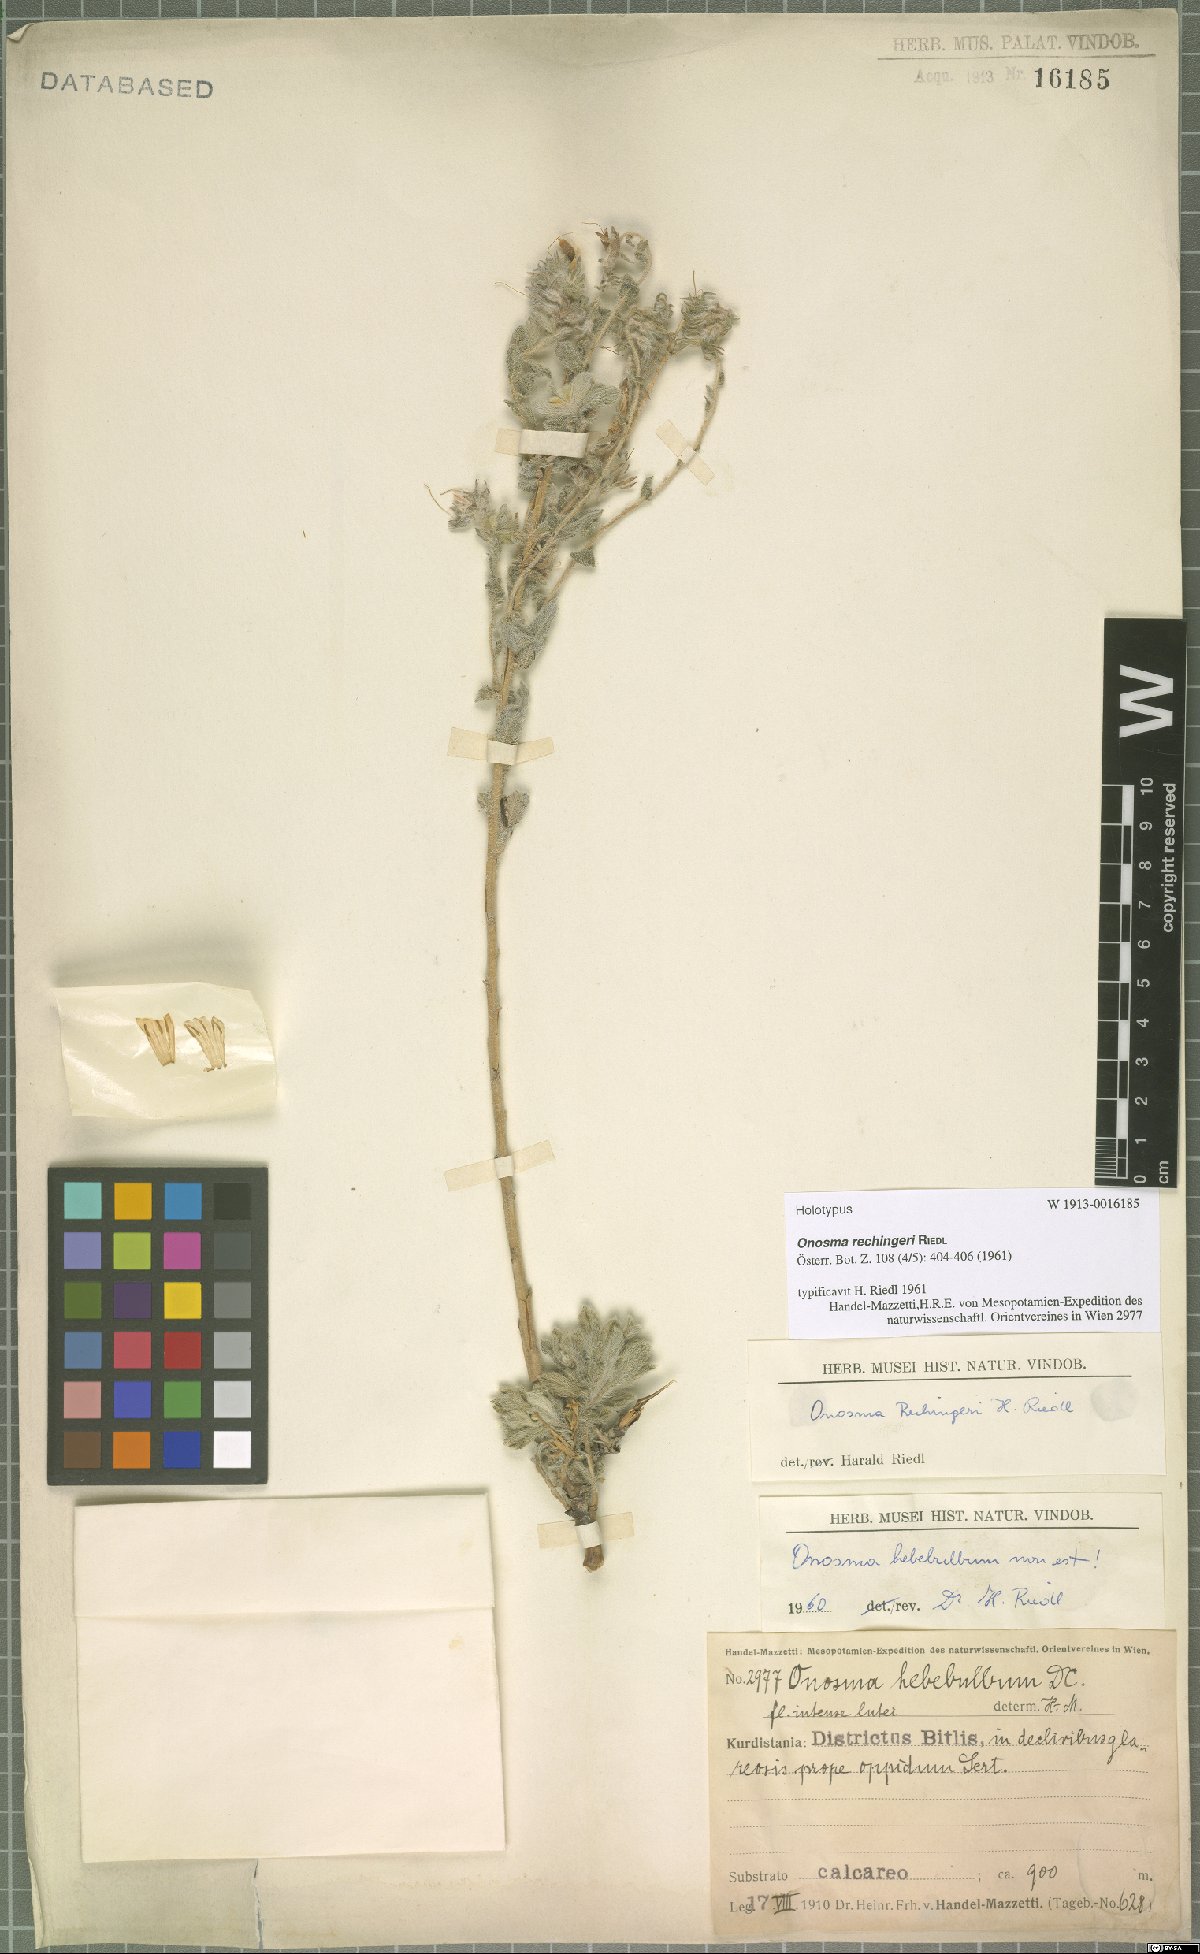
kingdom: Plantae
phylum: Tracheophyta
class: Magnoliopsida
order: Boraginales
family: Boraginaceae
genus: Onosma
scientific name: Onosma rechingeri
